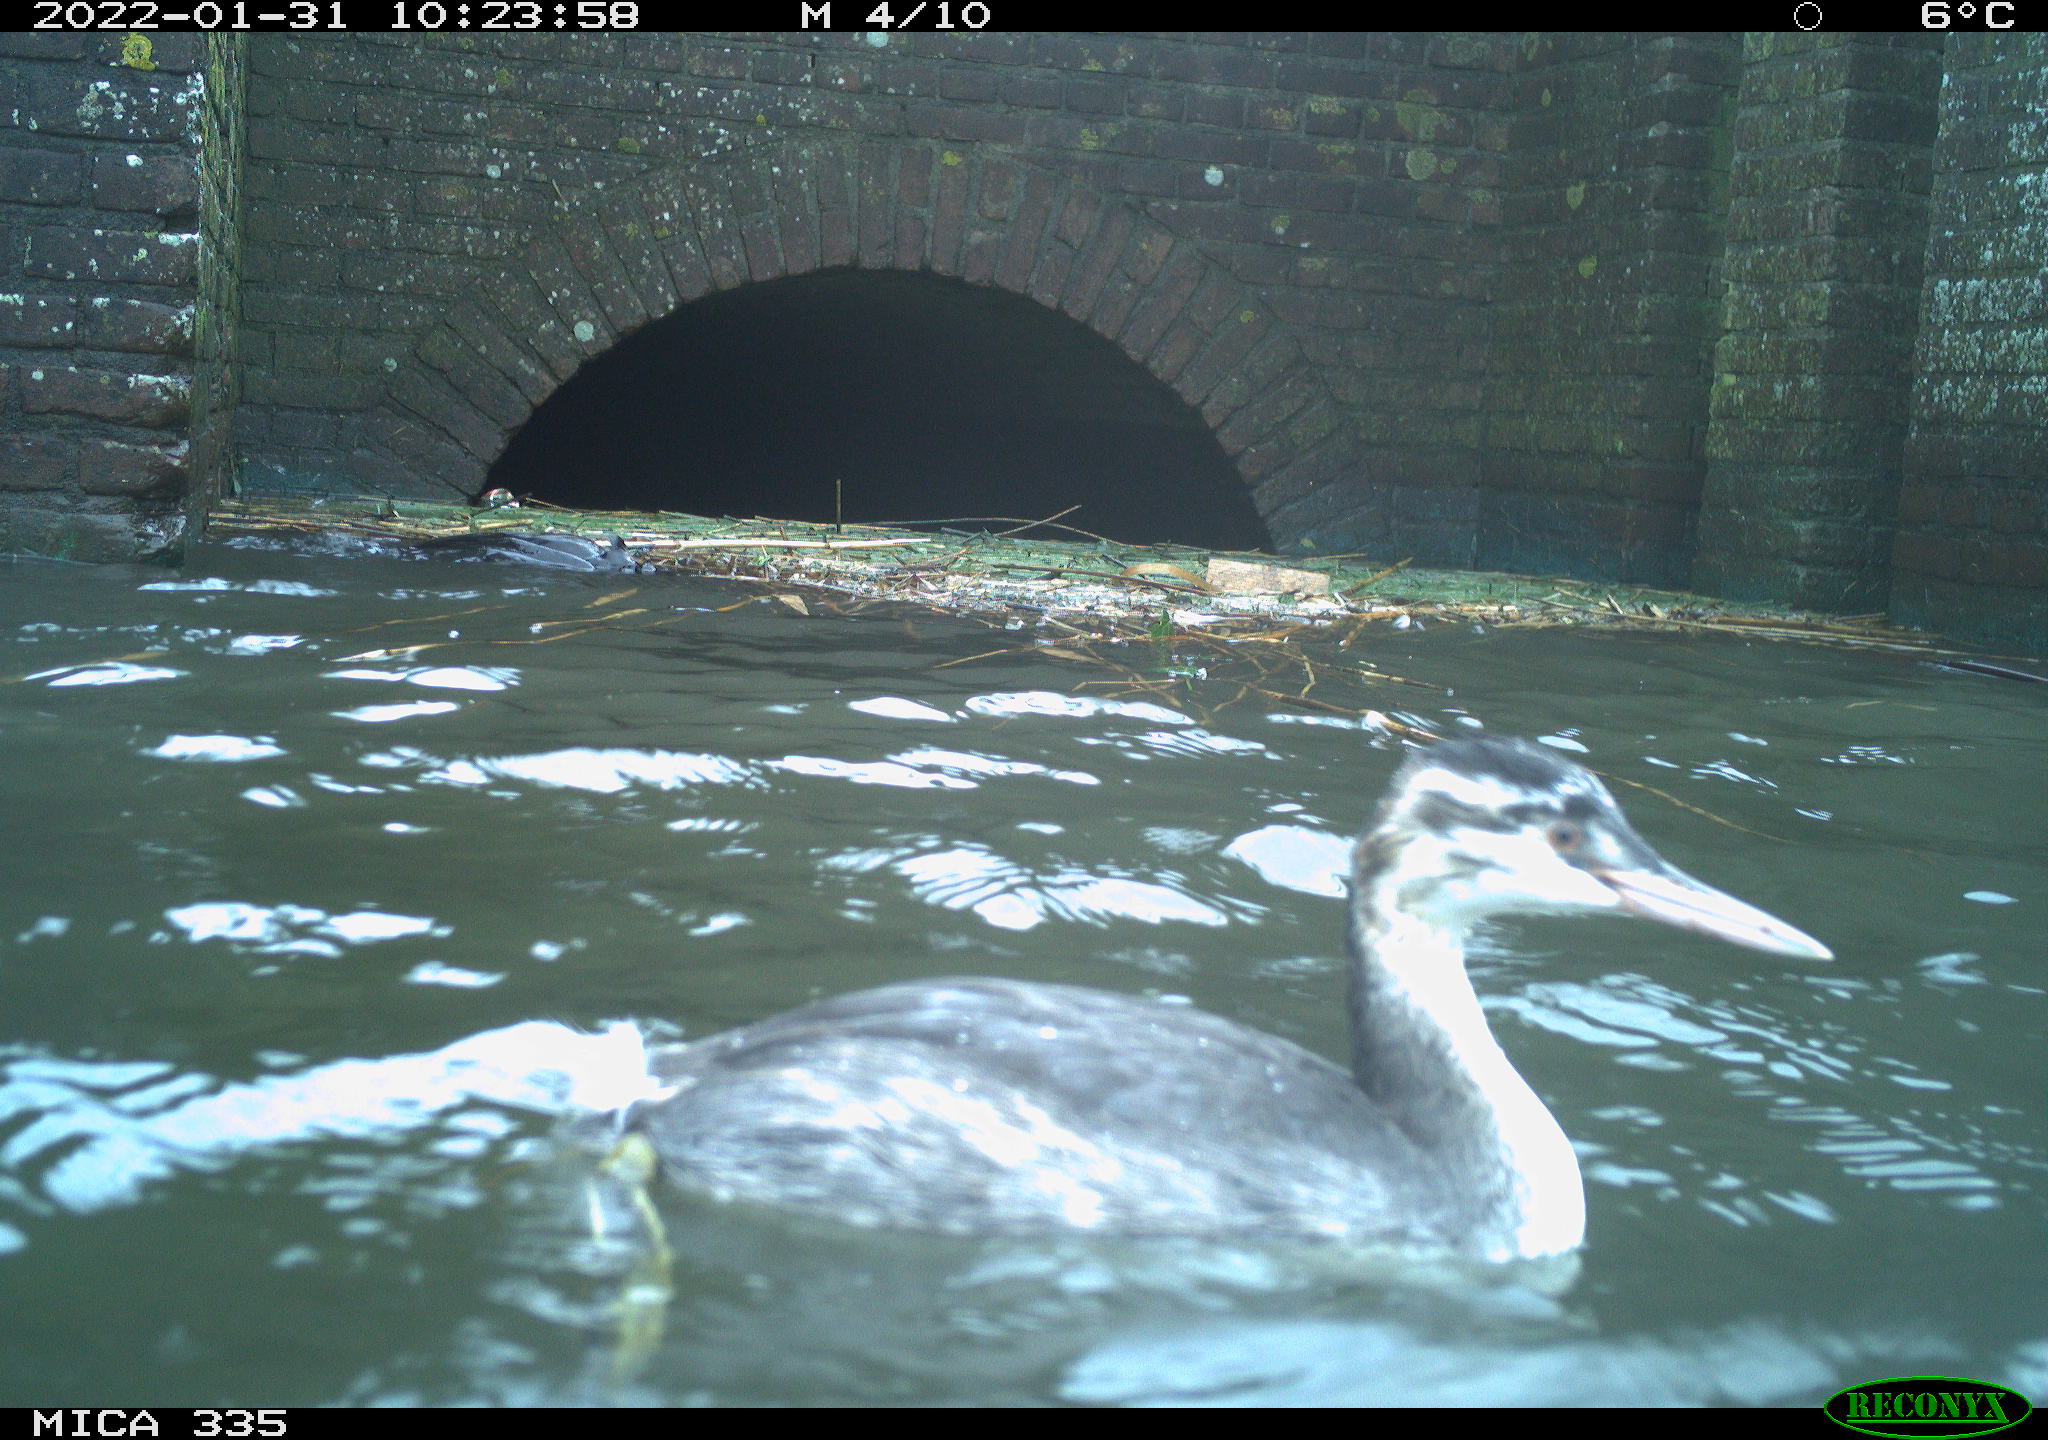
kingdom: Animalia
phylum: Chordata
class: Aves
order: Podicipediformes
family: Podicipedidae
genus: Podiceps
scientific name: Podiceps cristatus
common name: Great crested grebe
